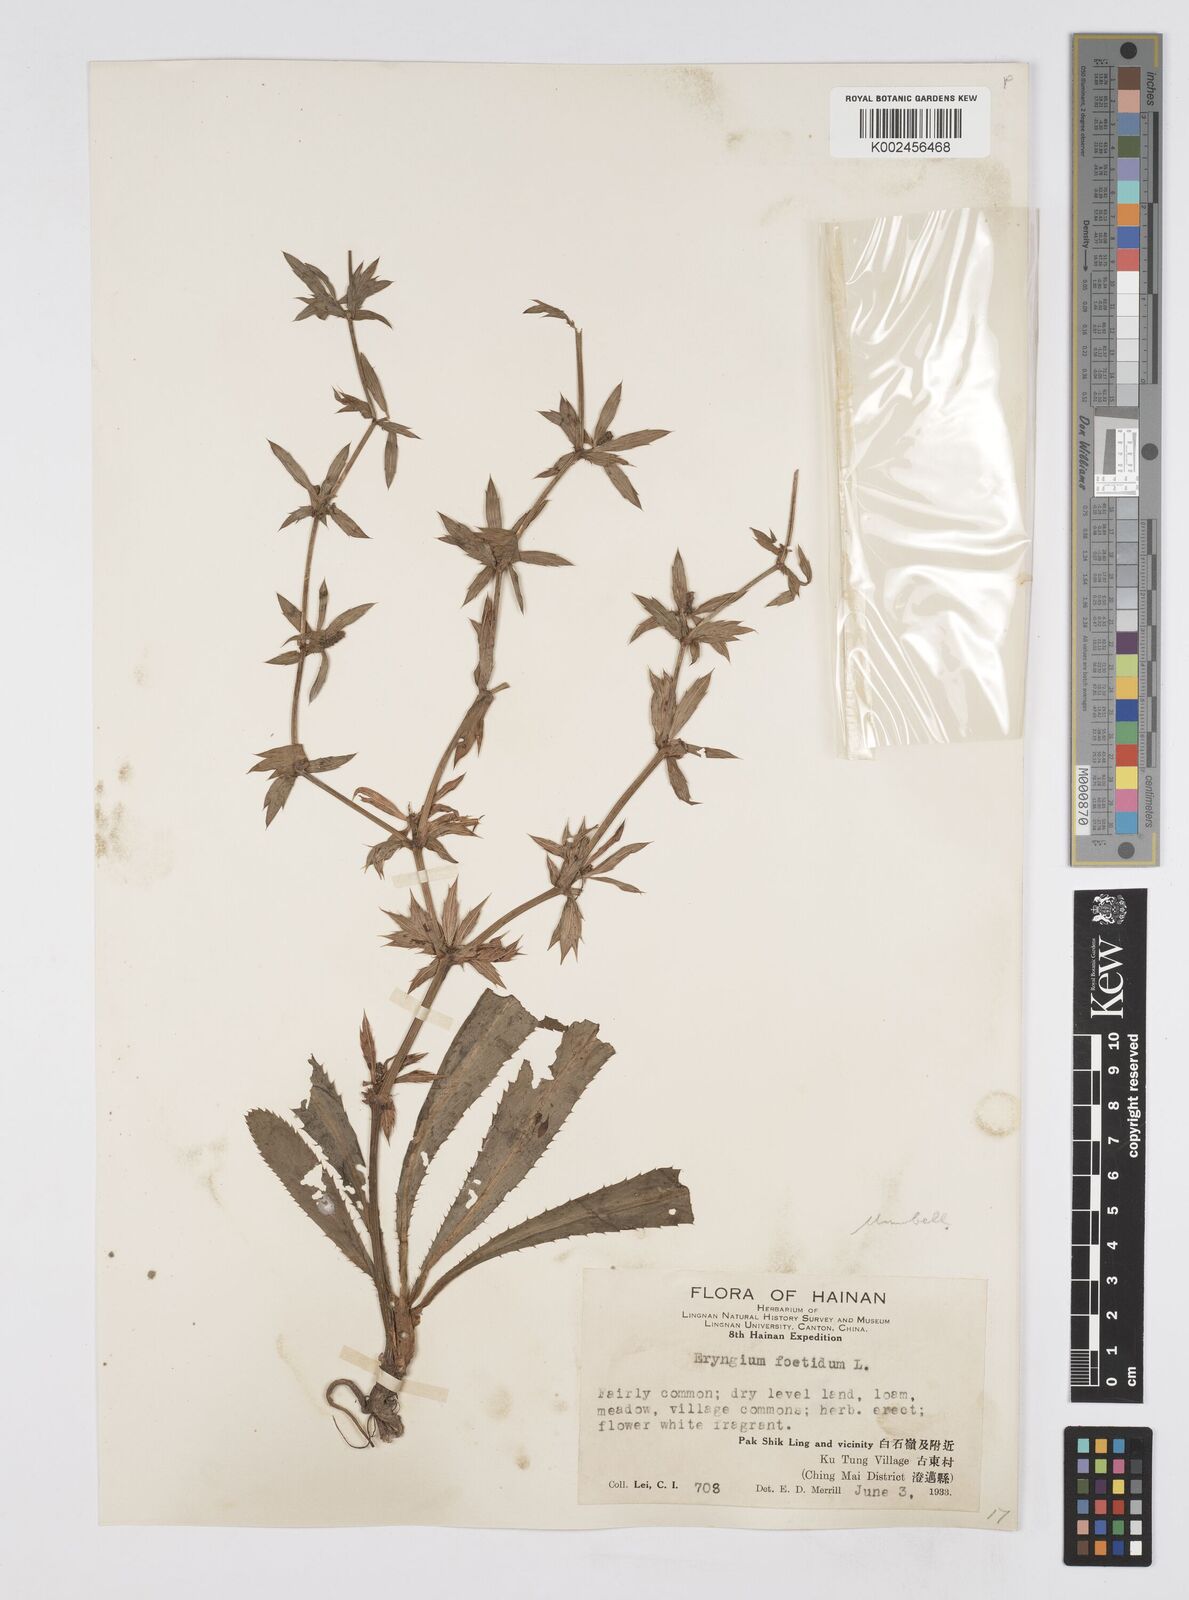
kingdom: Plantae
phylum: Tracheophyta
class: Magnoliopsida
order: Apiales
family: Apiaceae
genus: Eryngium
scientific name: Eryngium foetidum
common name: Fitweed
